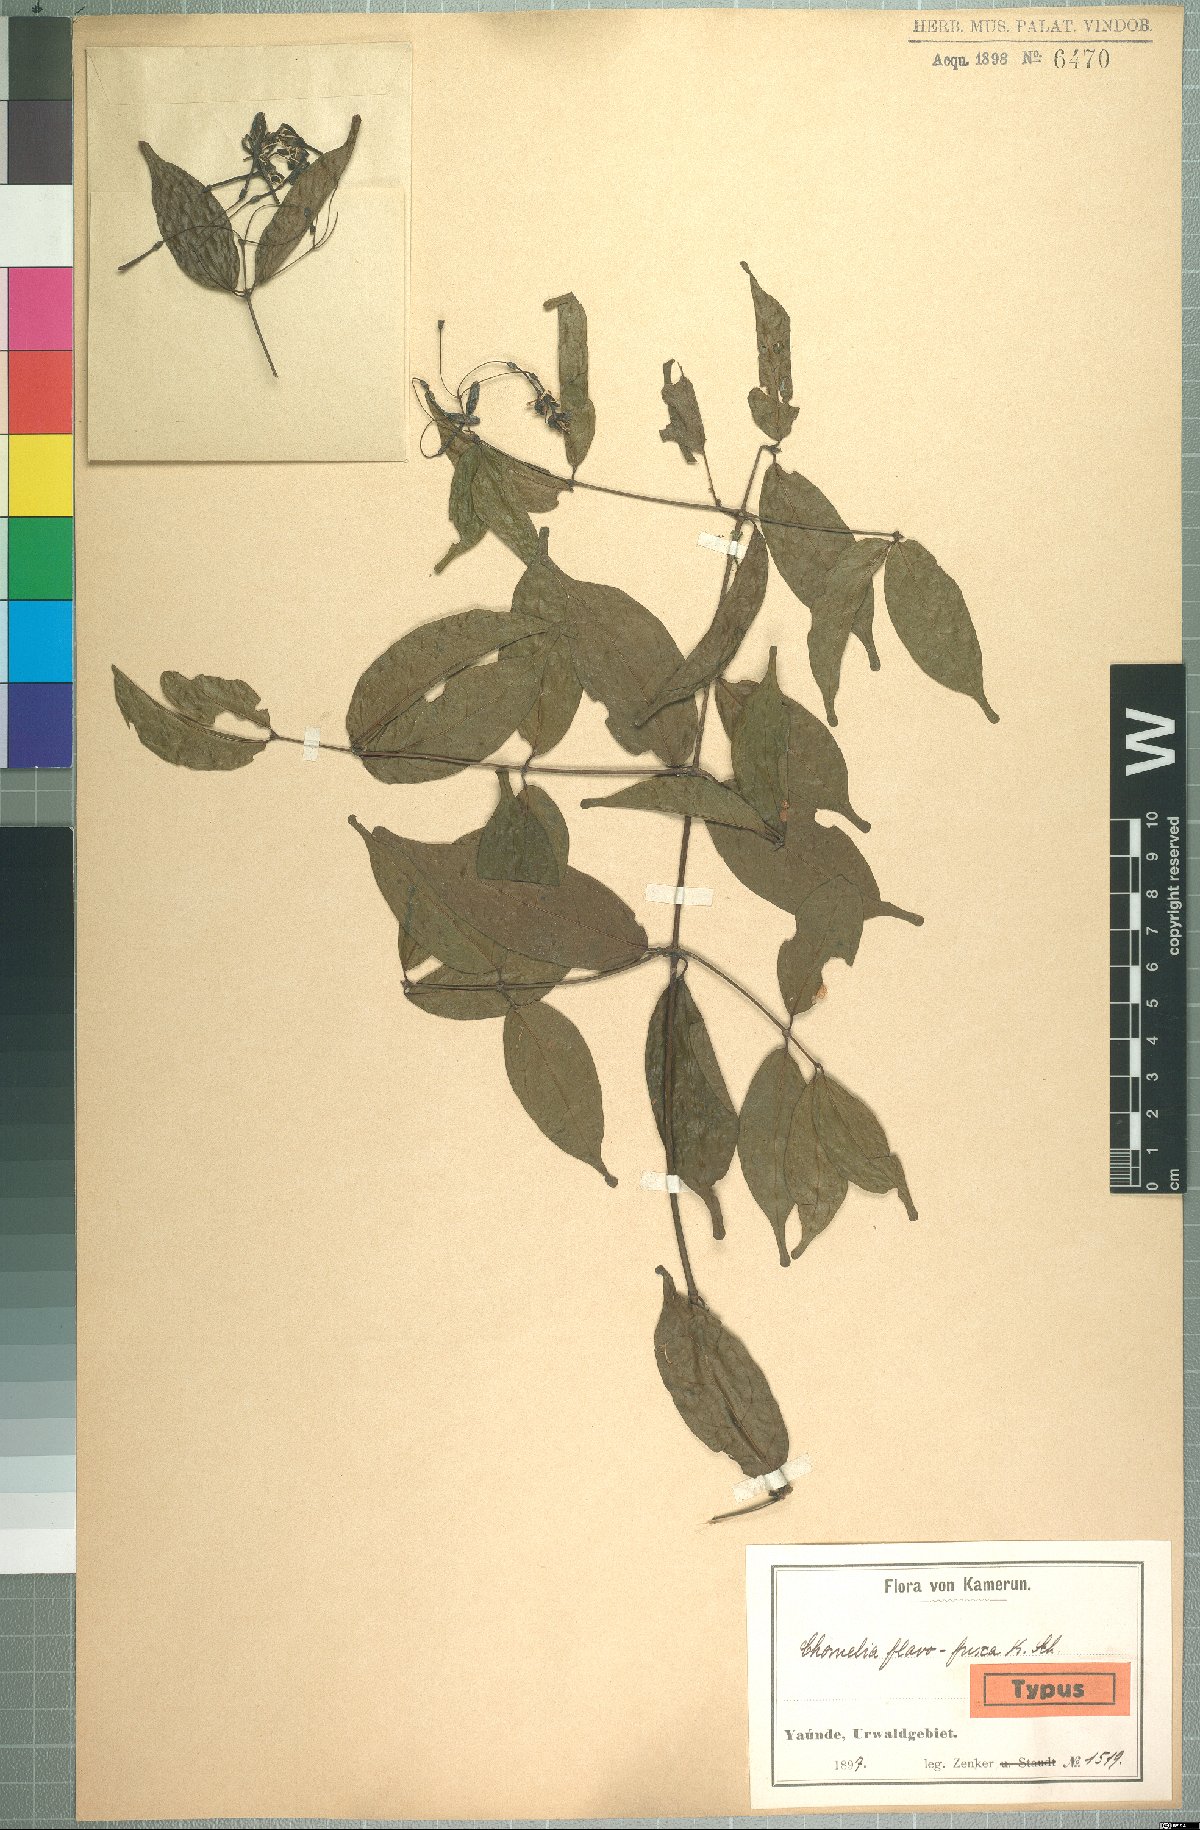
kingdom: Plantae
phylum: Tracheophyta
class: Magnoliopsida
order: Gentianales
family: Rubiaceae
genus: Tarenna
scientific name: Tarenna fuscoflava
